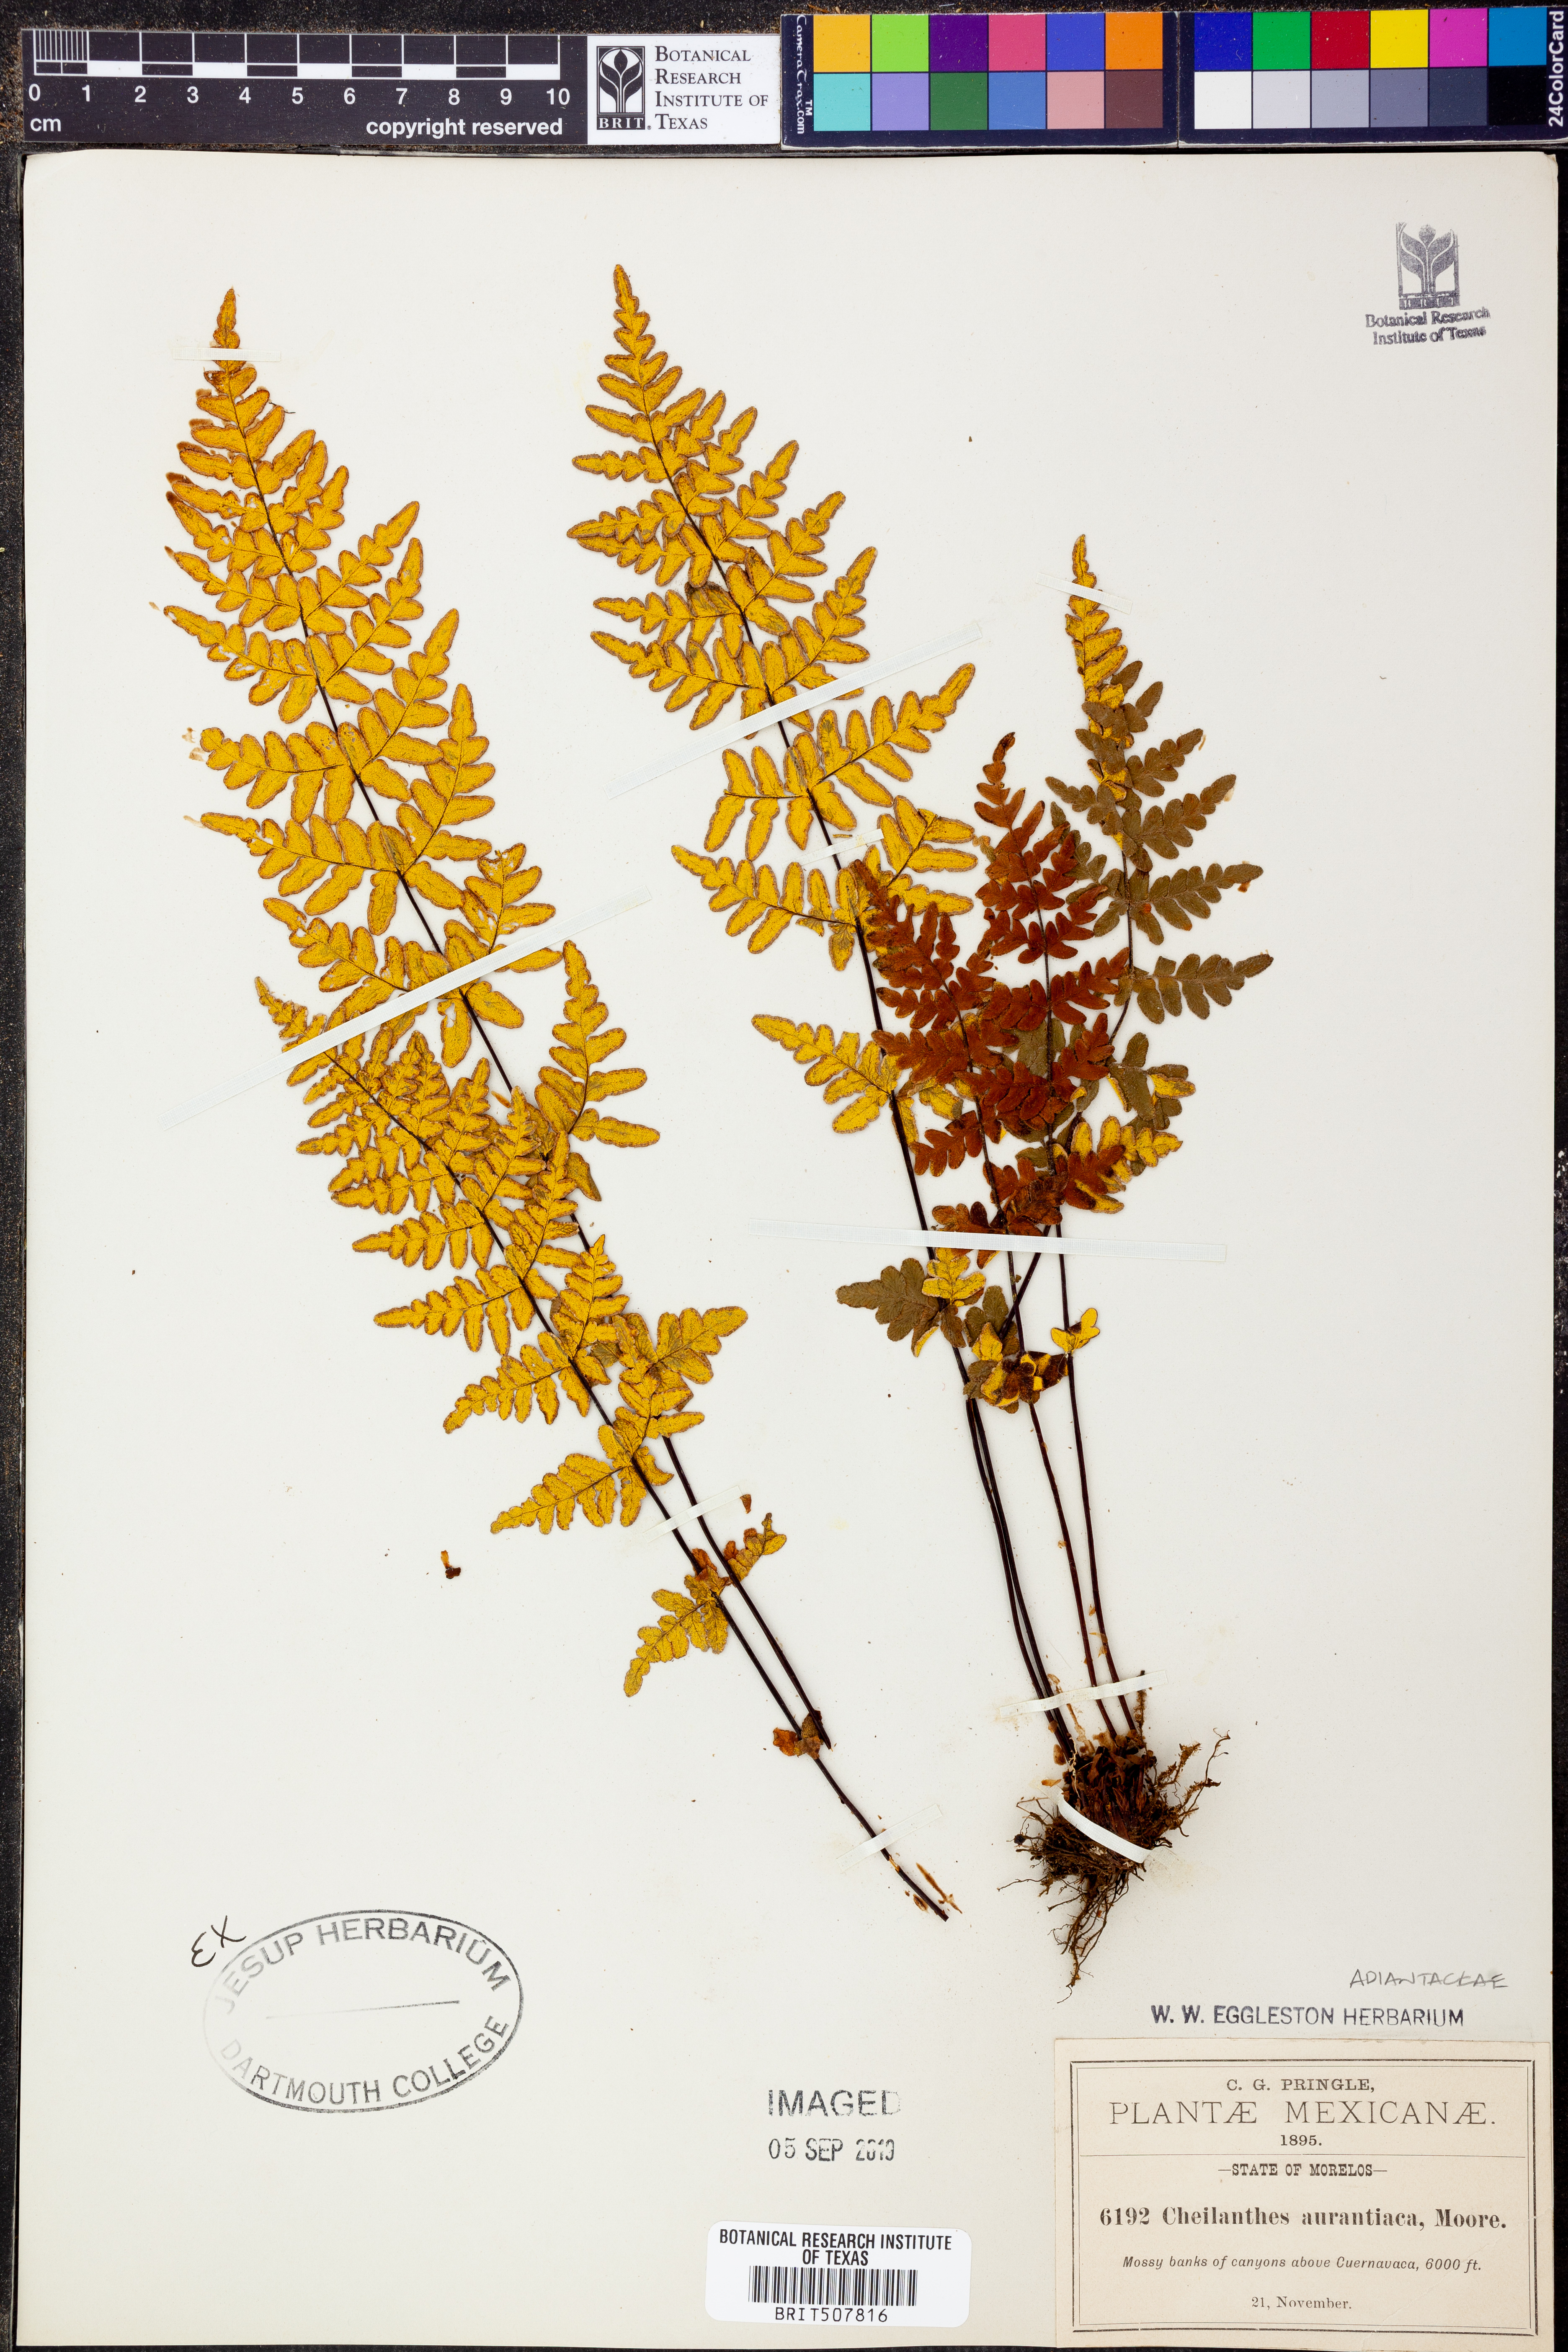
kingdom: Plantae
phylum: Tracheophyta
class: Polypodiopsida
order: Polypodiales
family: Pteridaceae
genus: Notholaena
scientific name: Notholaena ochracea
